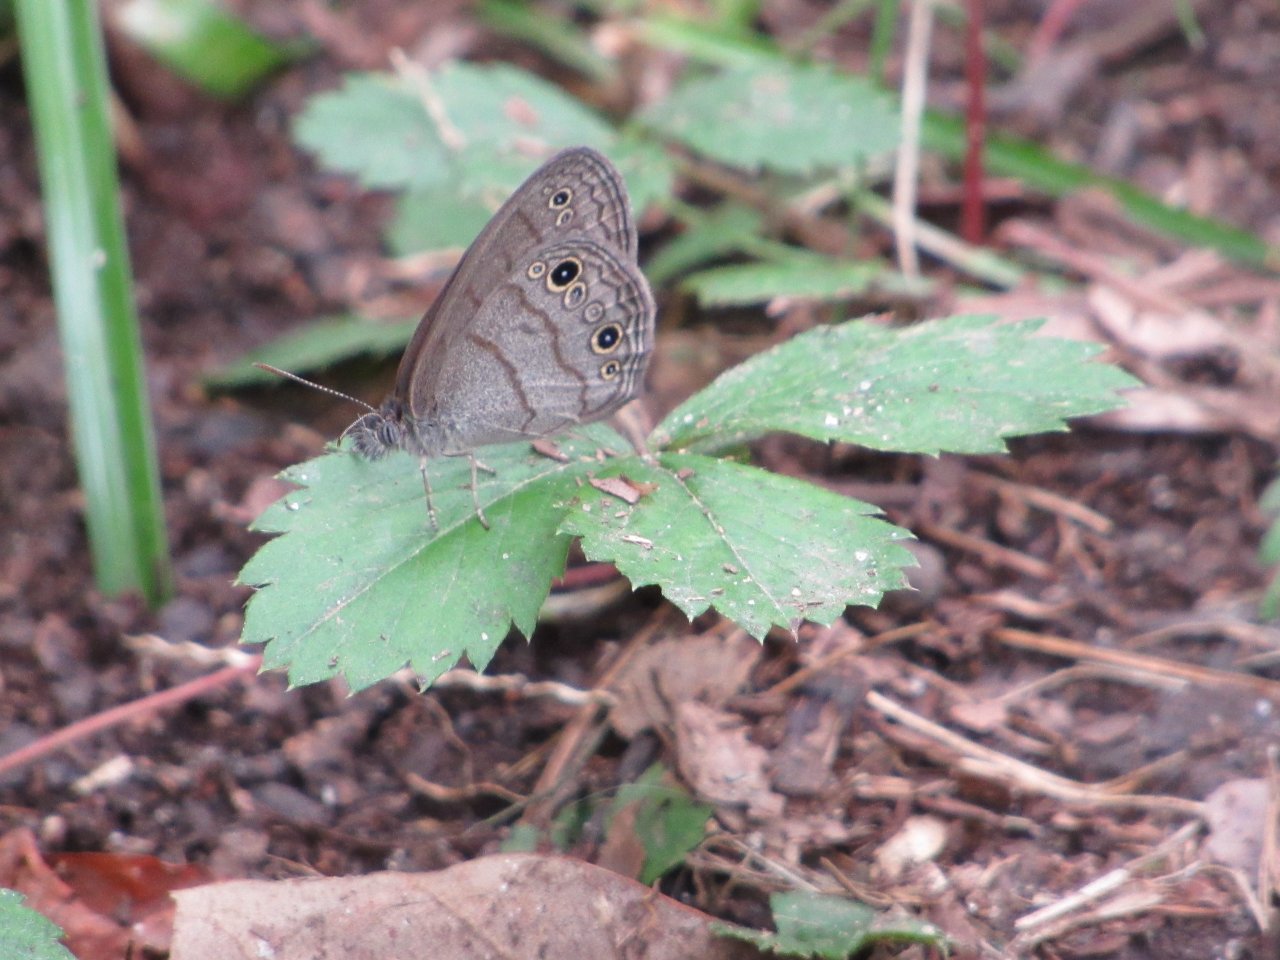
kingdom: Animalia
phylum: Arthropoda
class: Insecta
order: Lepidoptera
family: Nymphalidae
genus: Hermeuptychia
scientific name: Hermeuptychia hermes
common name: Carolina Satyr
